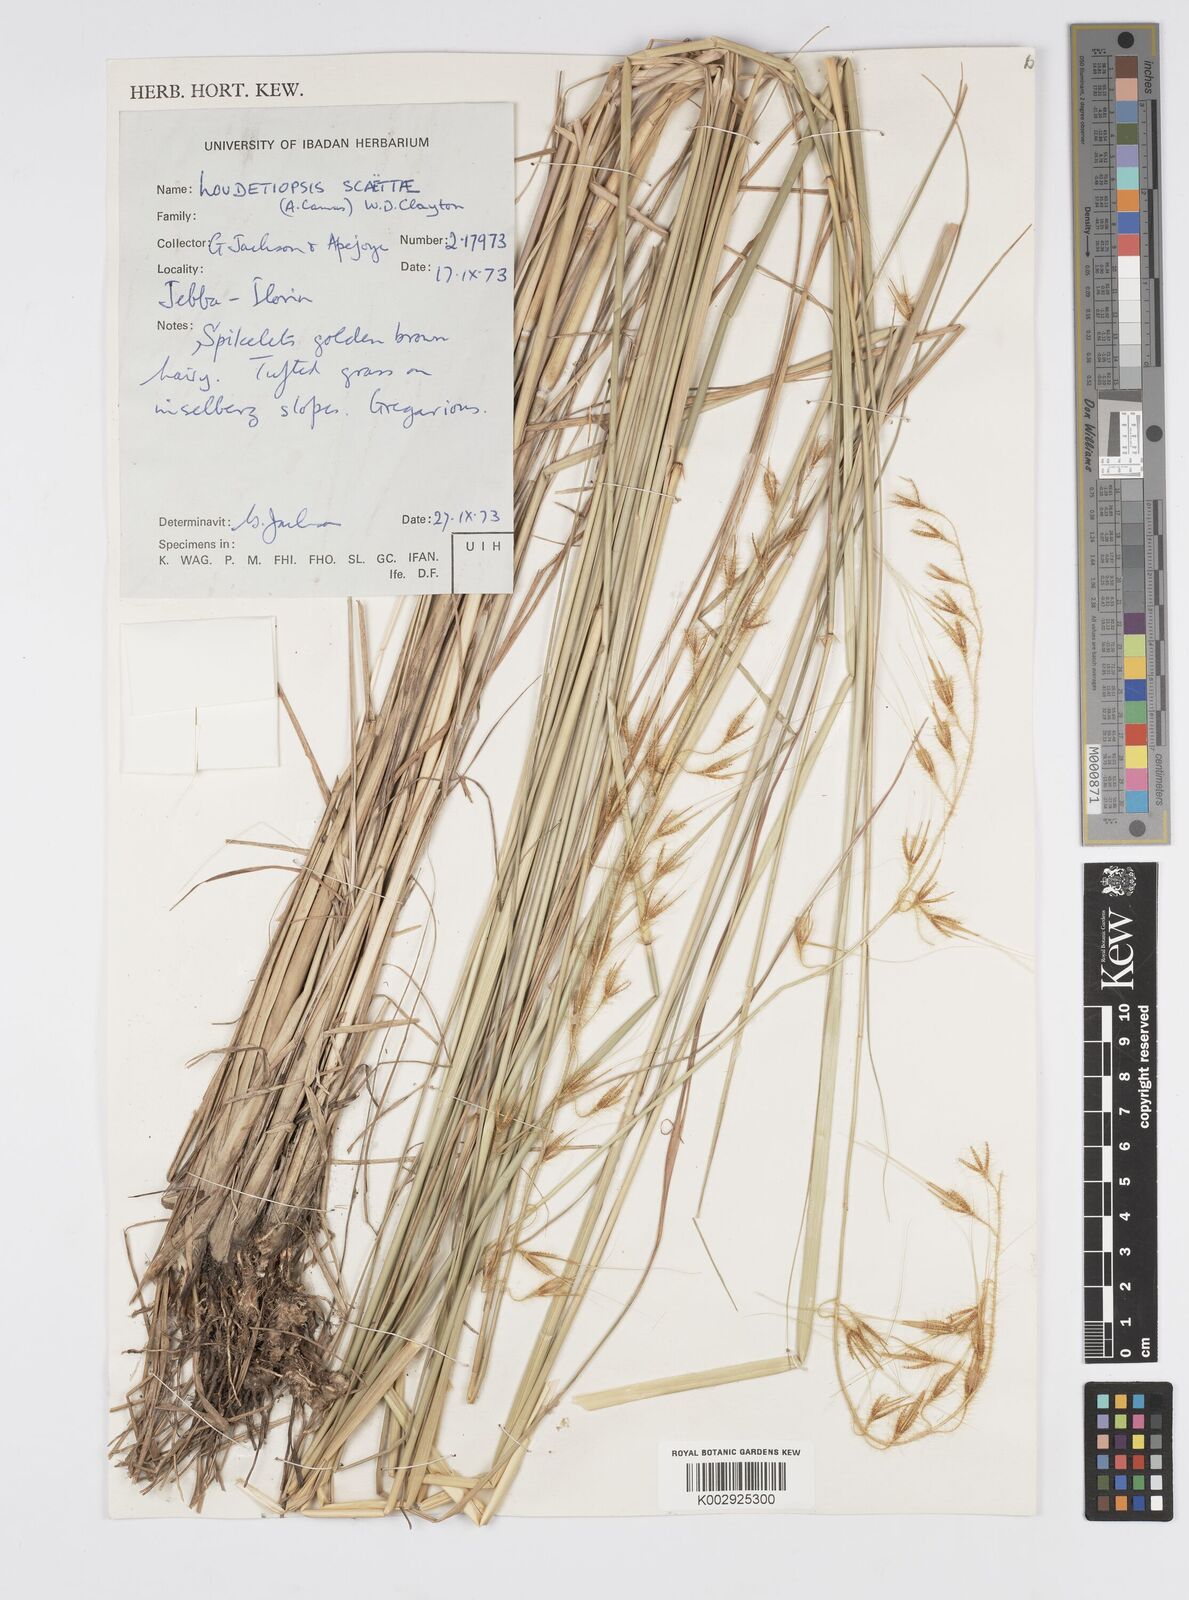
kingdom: Plantae
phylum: Tracheophyta
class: Liliopsida
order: Poales
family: Poaceae
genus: Loudetiopsis
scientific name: Loudetiopsis scaettae
